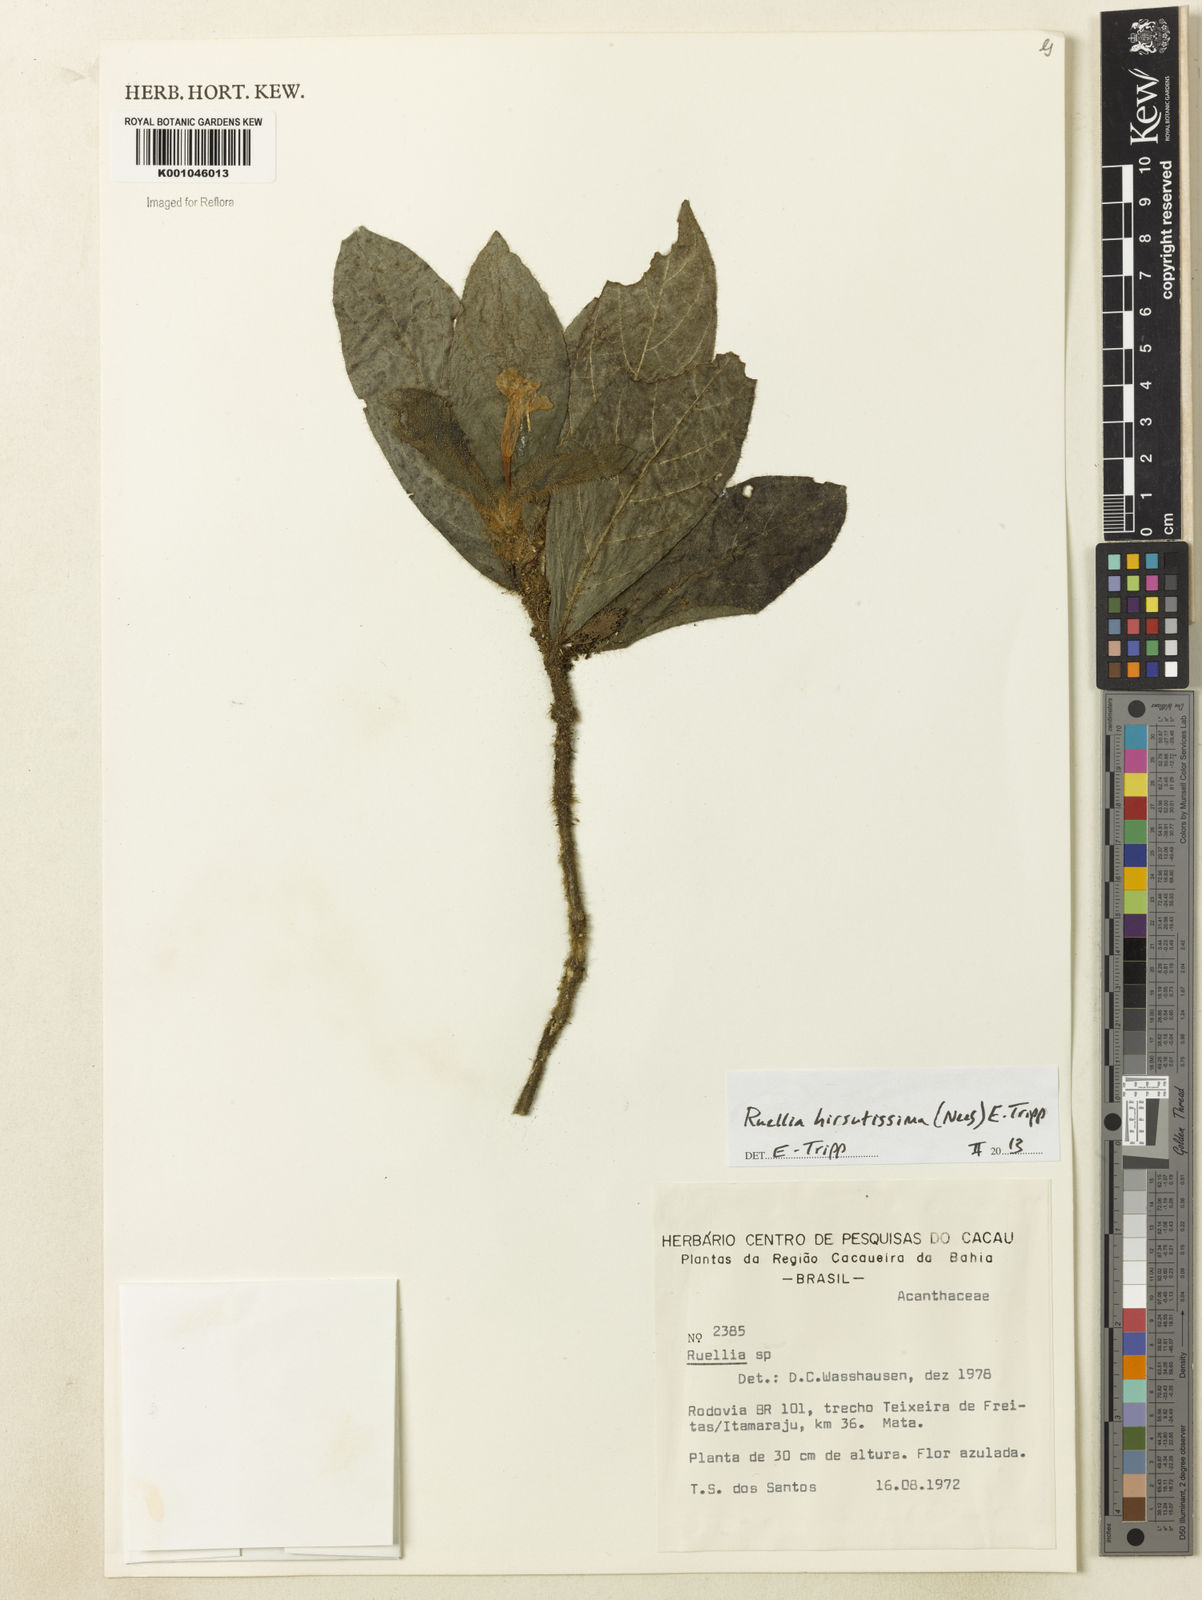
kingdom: Plantae
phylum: Tracheophyta
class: Magnoliopsida
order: Lamiales
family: Acanthaceae
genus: Ruellia
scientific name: Ruellia hirsutissima
